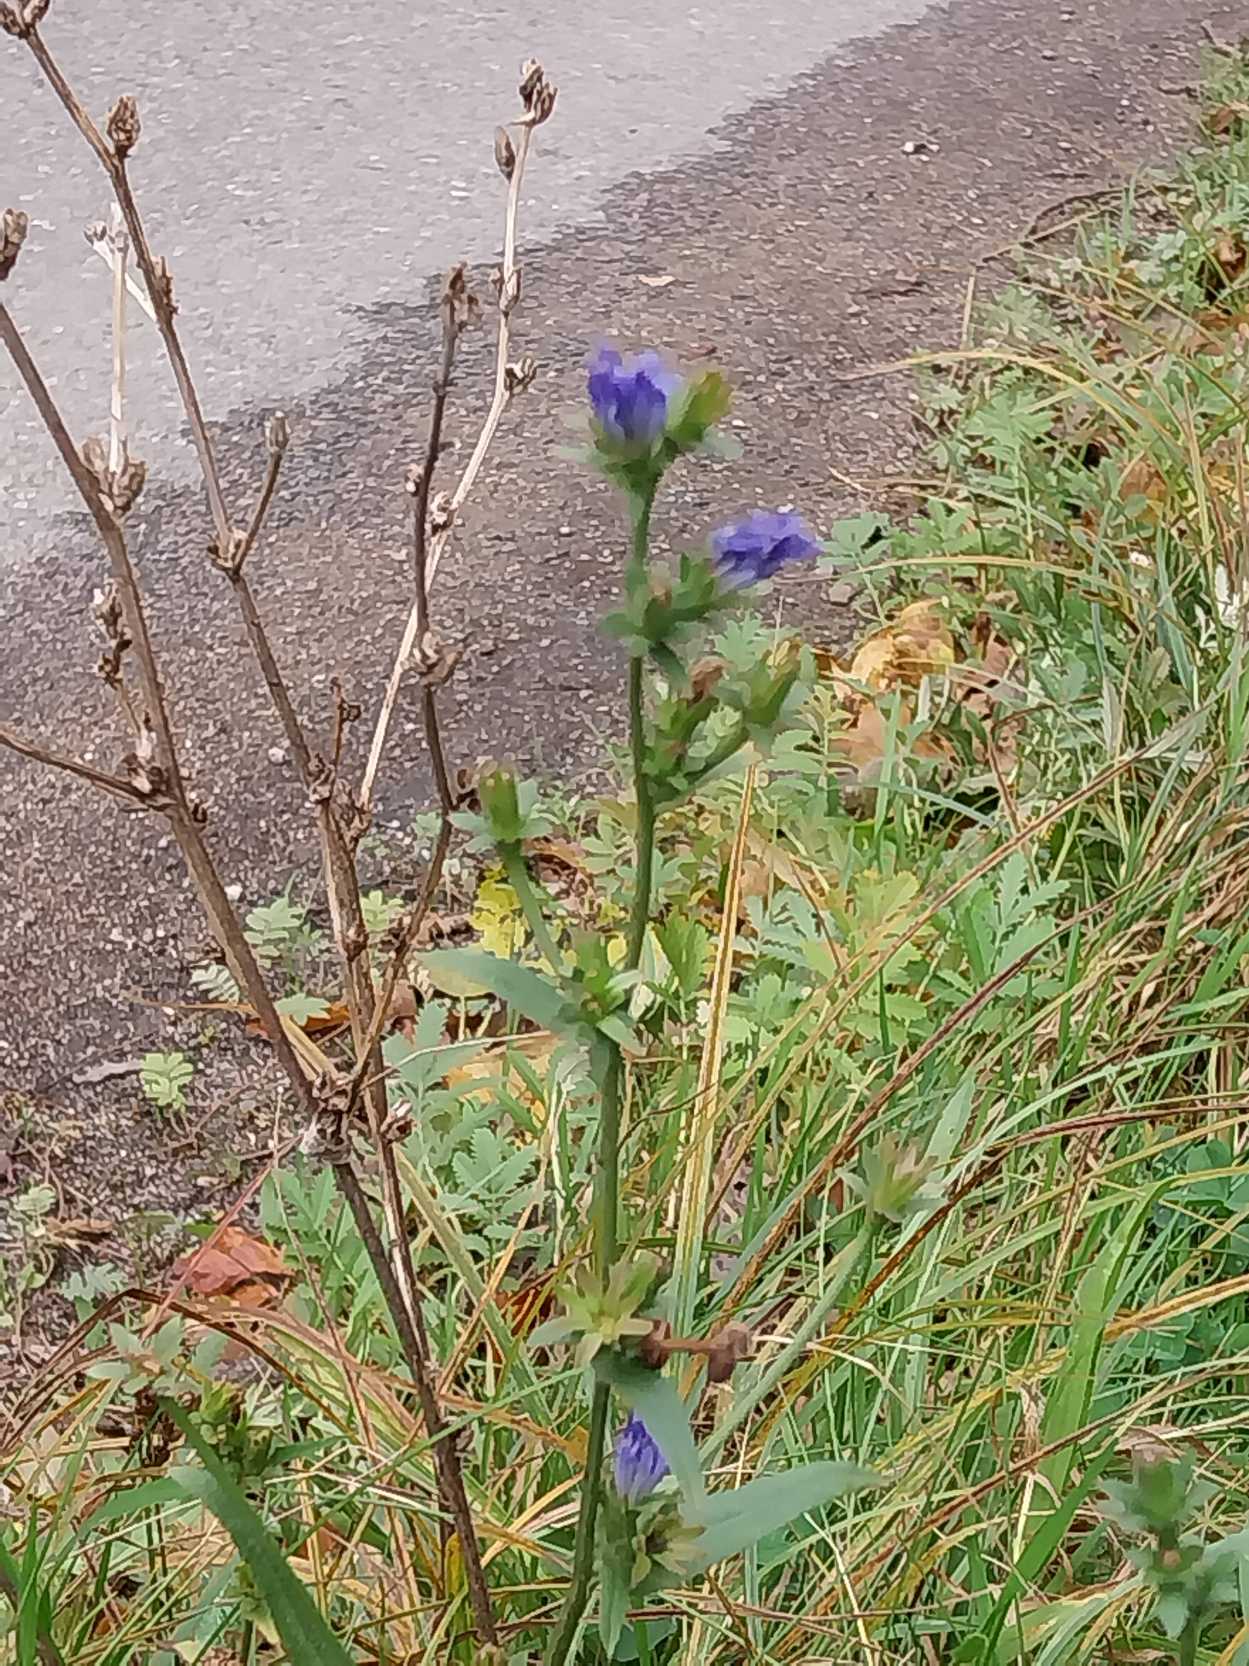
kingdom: Plantae
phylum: Tracheophyta
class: Magnoliopsida
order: Asterales
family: Asteraceae
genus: Cichorium
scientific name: Cichorium intybus
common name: Cikorie
